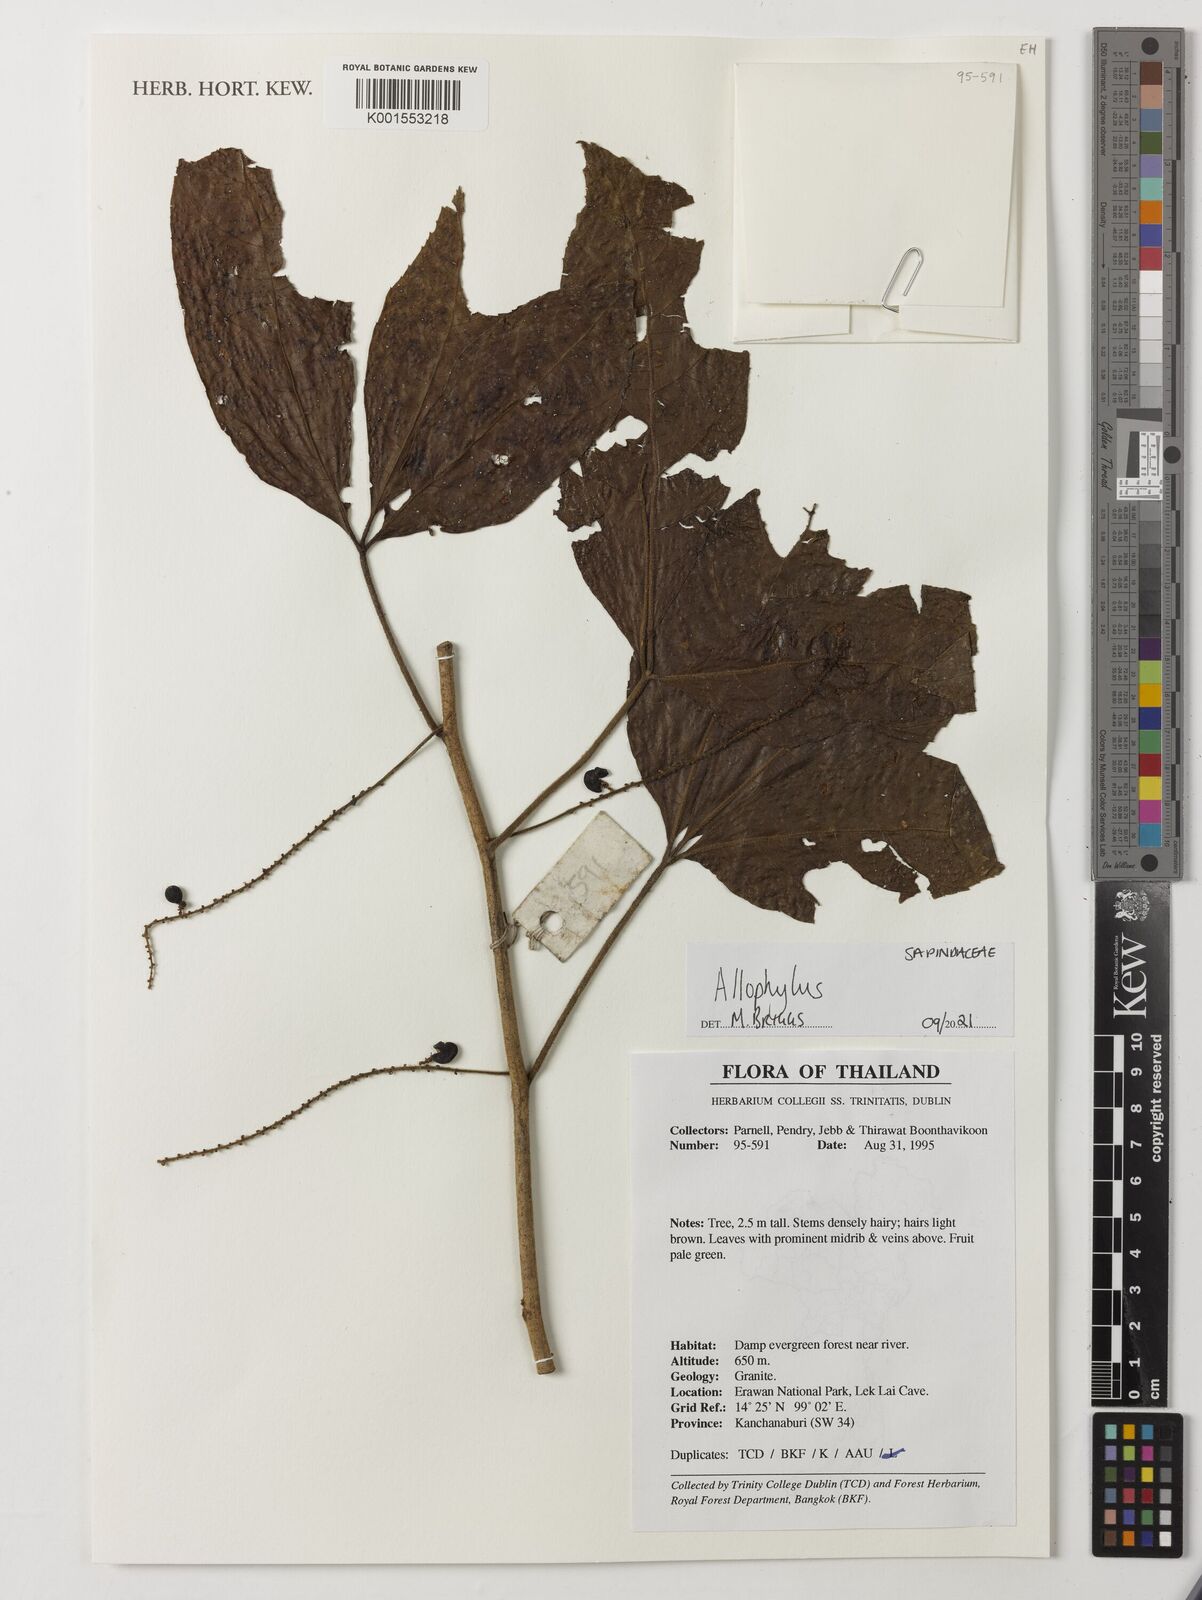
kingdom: Plantae
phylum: Tracheophyta
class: Magnoliopsida
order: Sapindales
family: Sapindaceae
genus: Allophylus
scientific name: Allophylus
